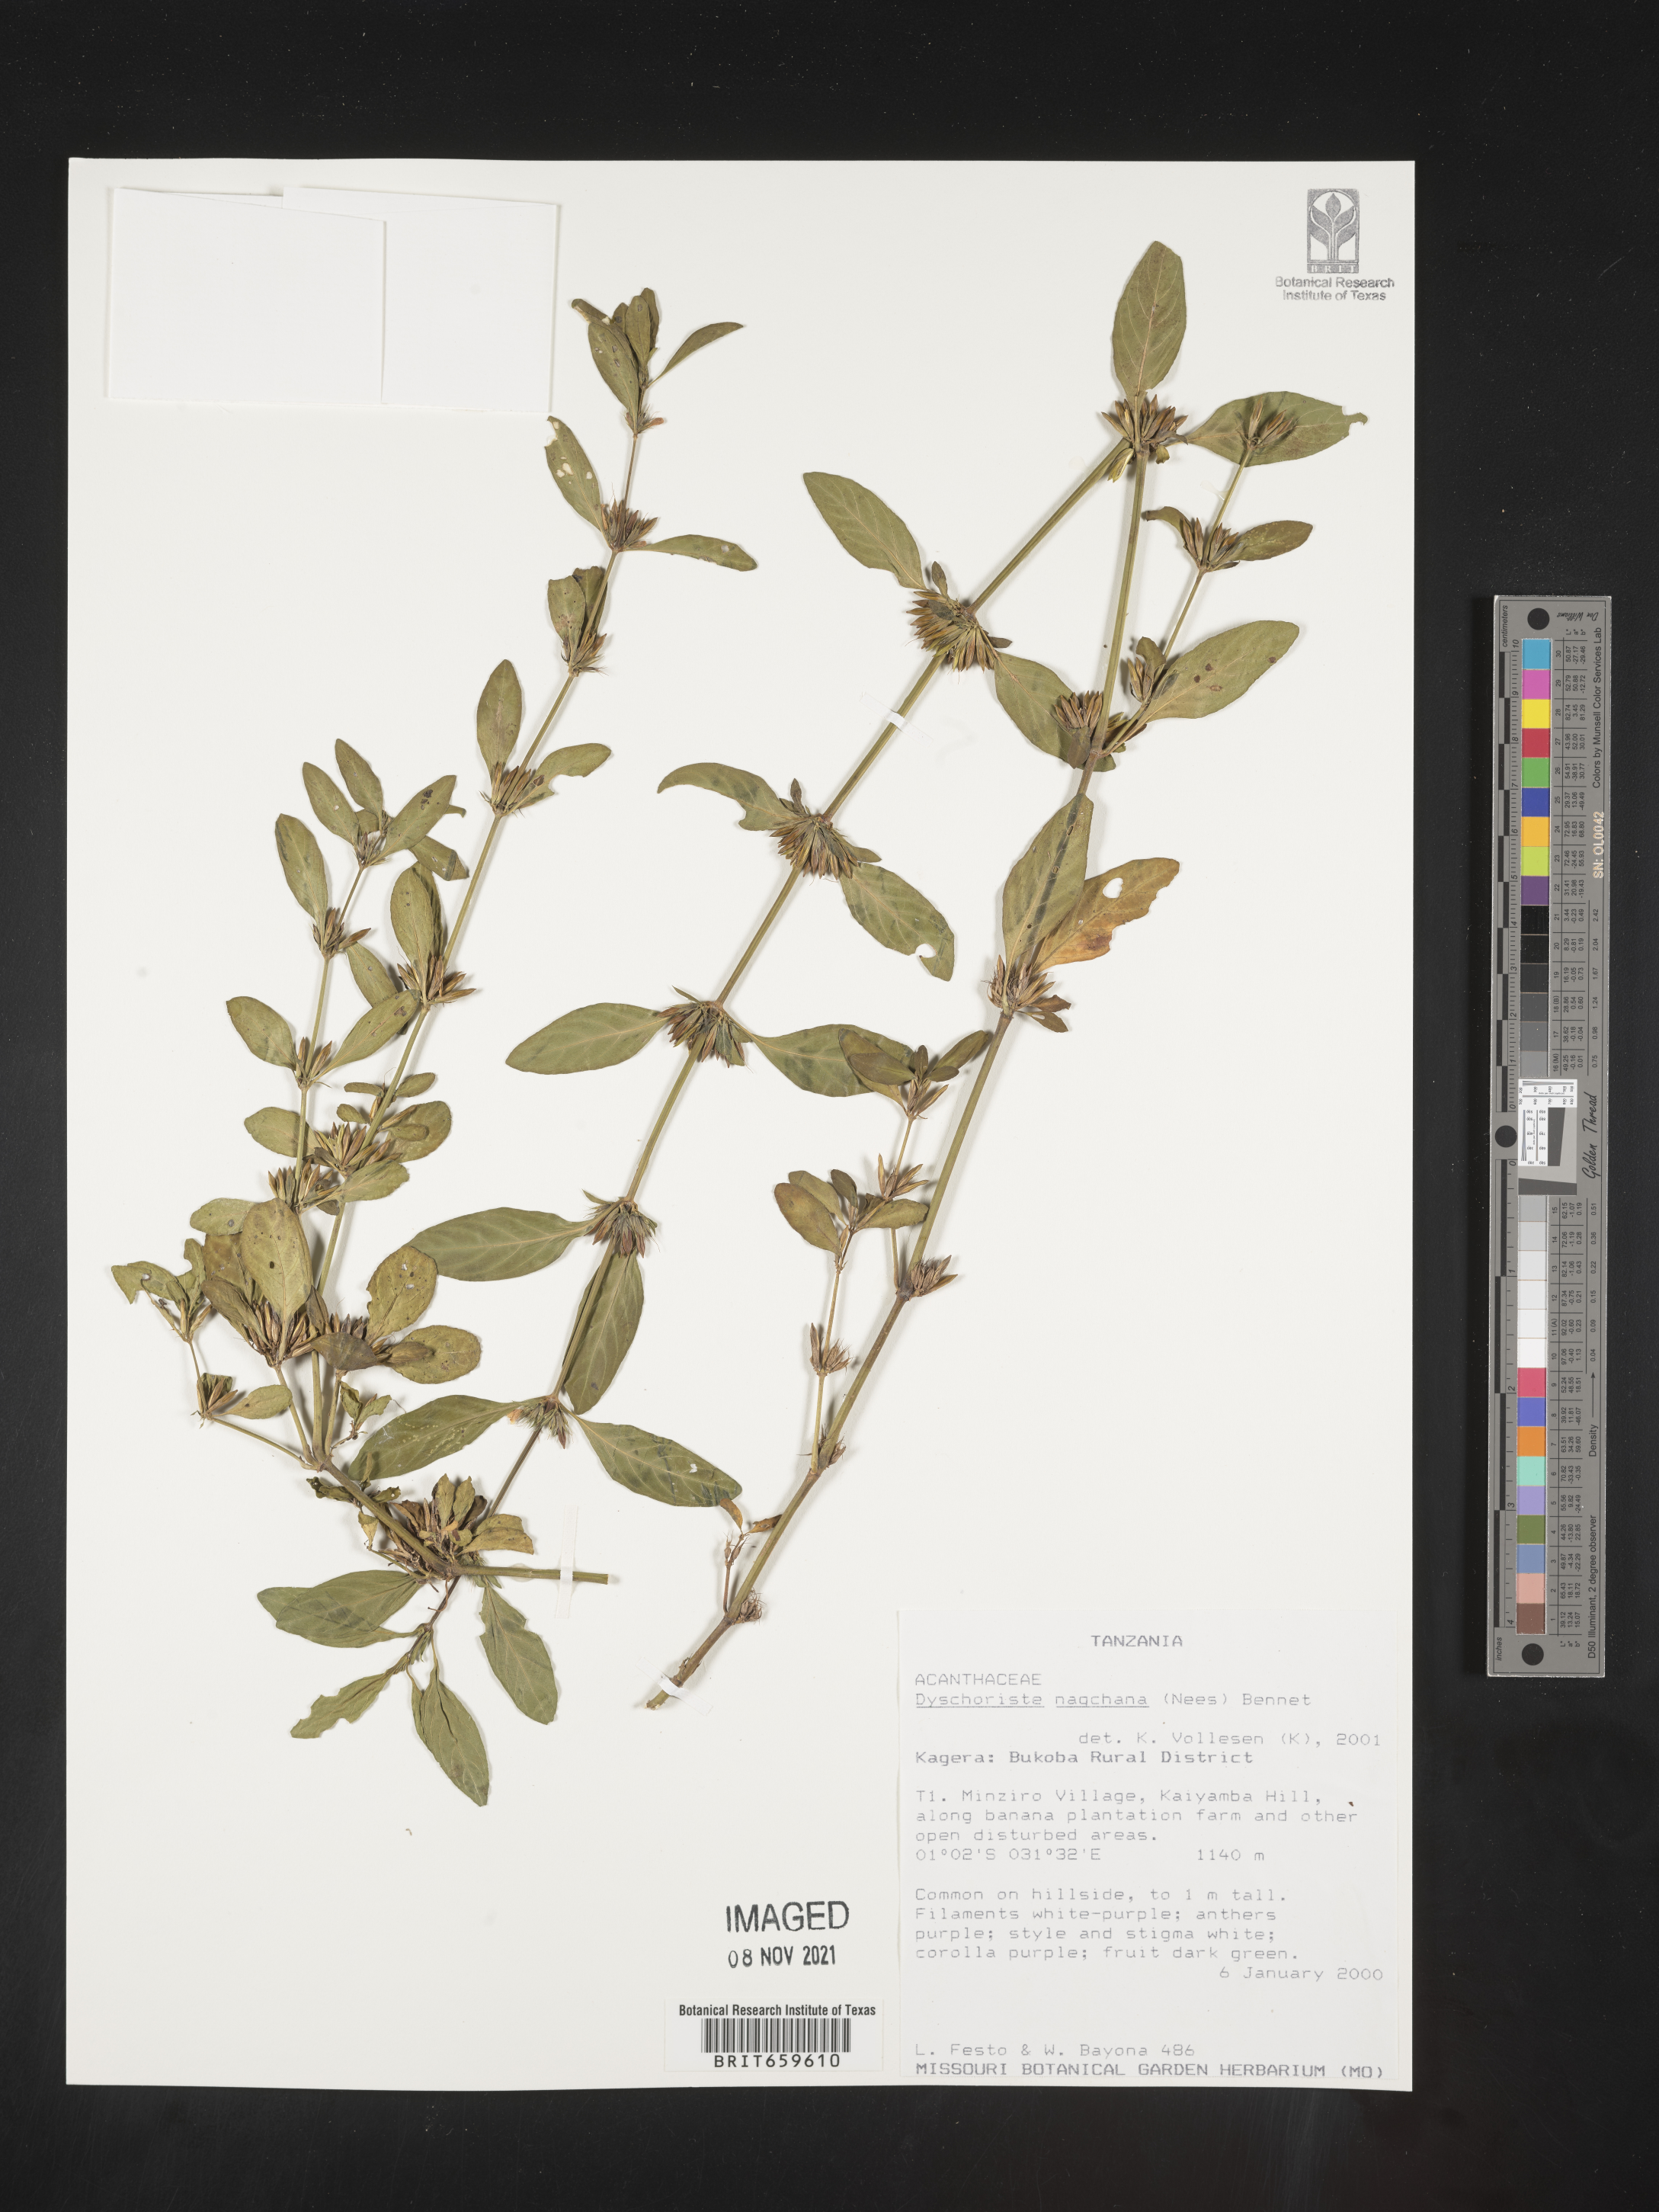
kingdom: Plantae
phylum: Tracheophyta
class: Magnoliopsida
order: Lamiales
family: Acanthaceae
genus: Dyschoriste
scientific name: Dyschoriste nagchana
